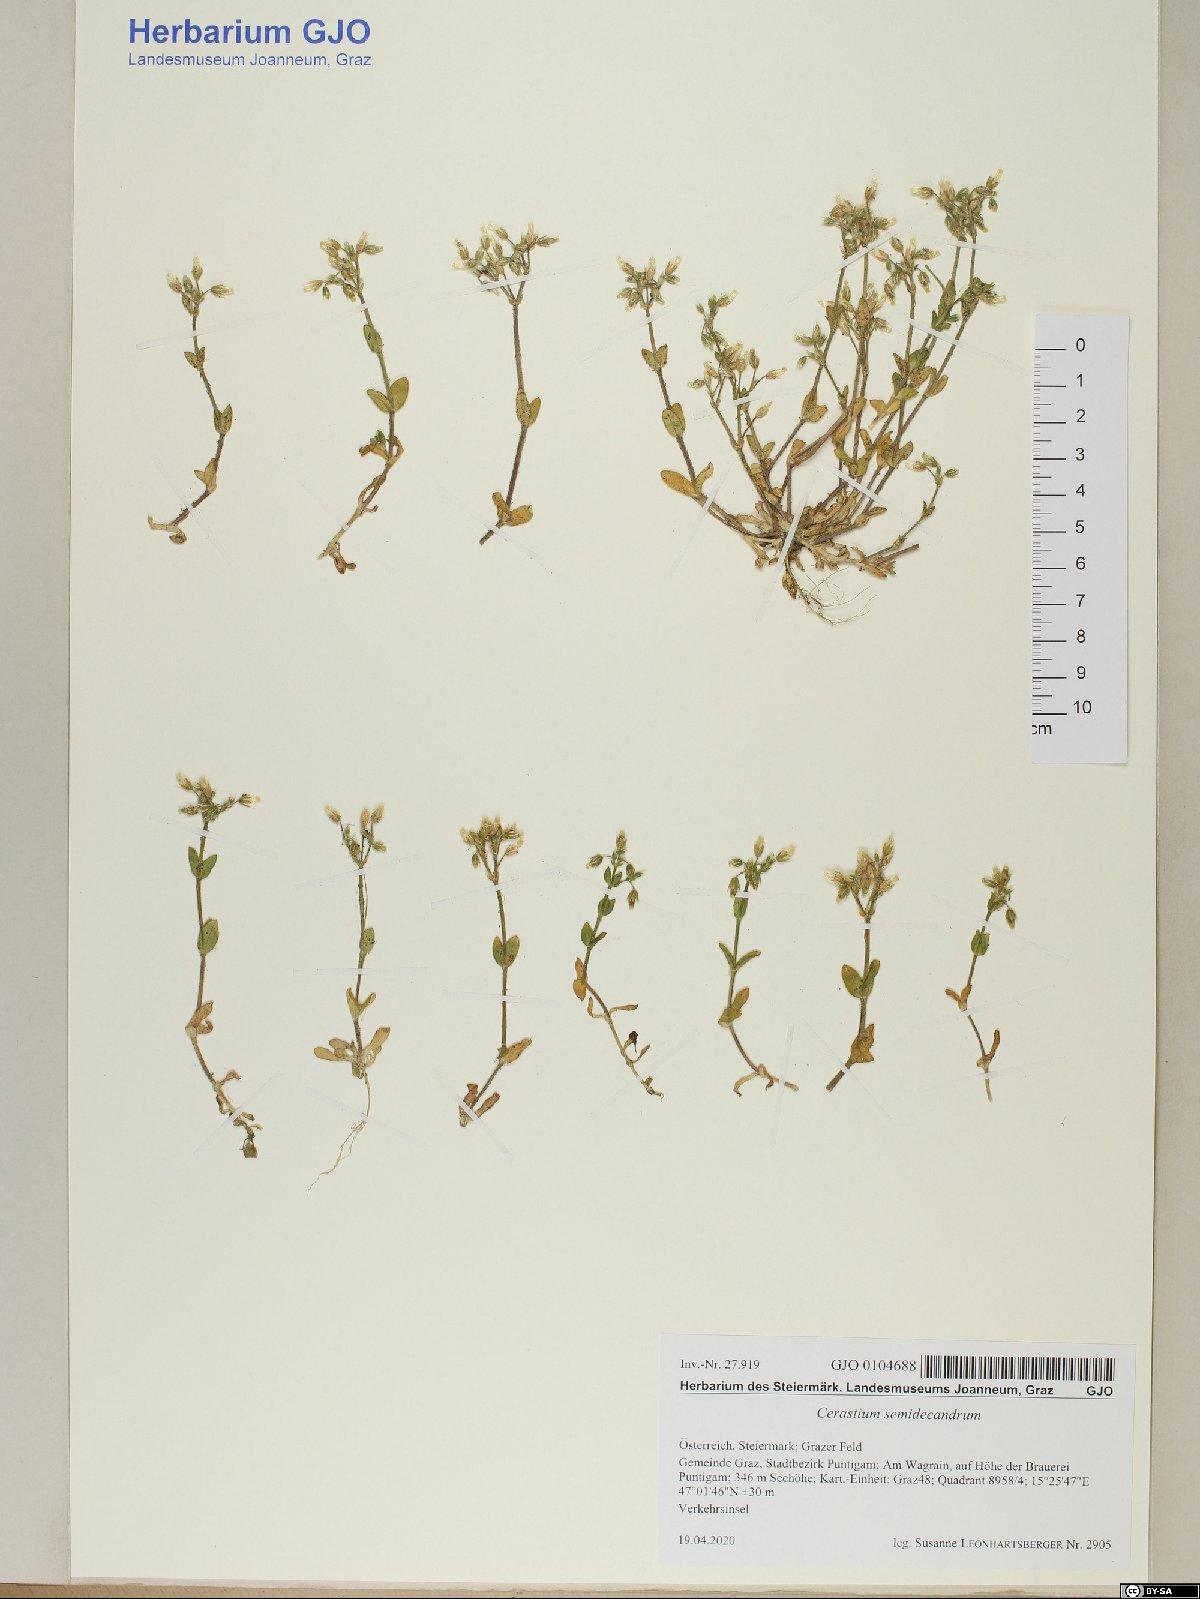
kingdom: Plantae
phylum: Tracheophyta
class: Magnoliopsida
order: Caryophyllales
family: Caryophyllaceae
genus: Cerastium
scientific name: Cerastium semidecandrum
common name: Little mouse-ear
